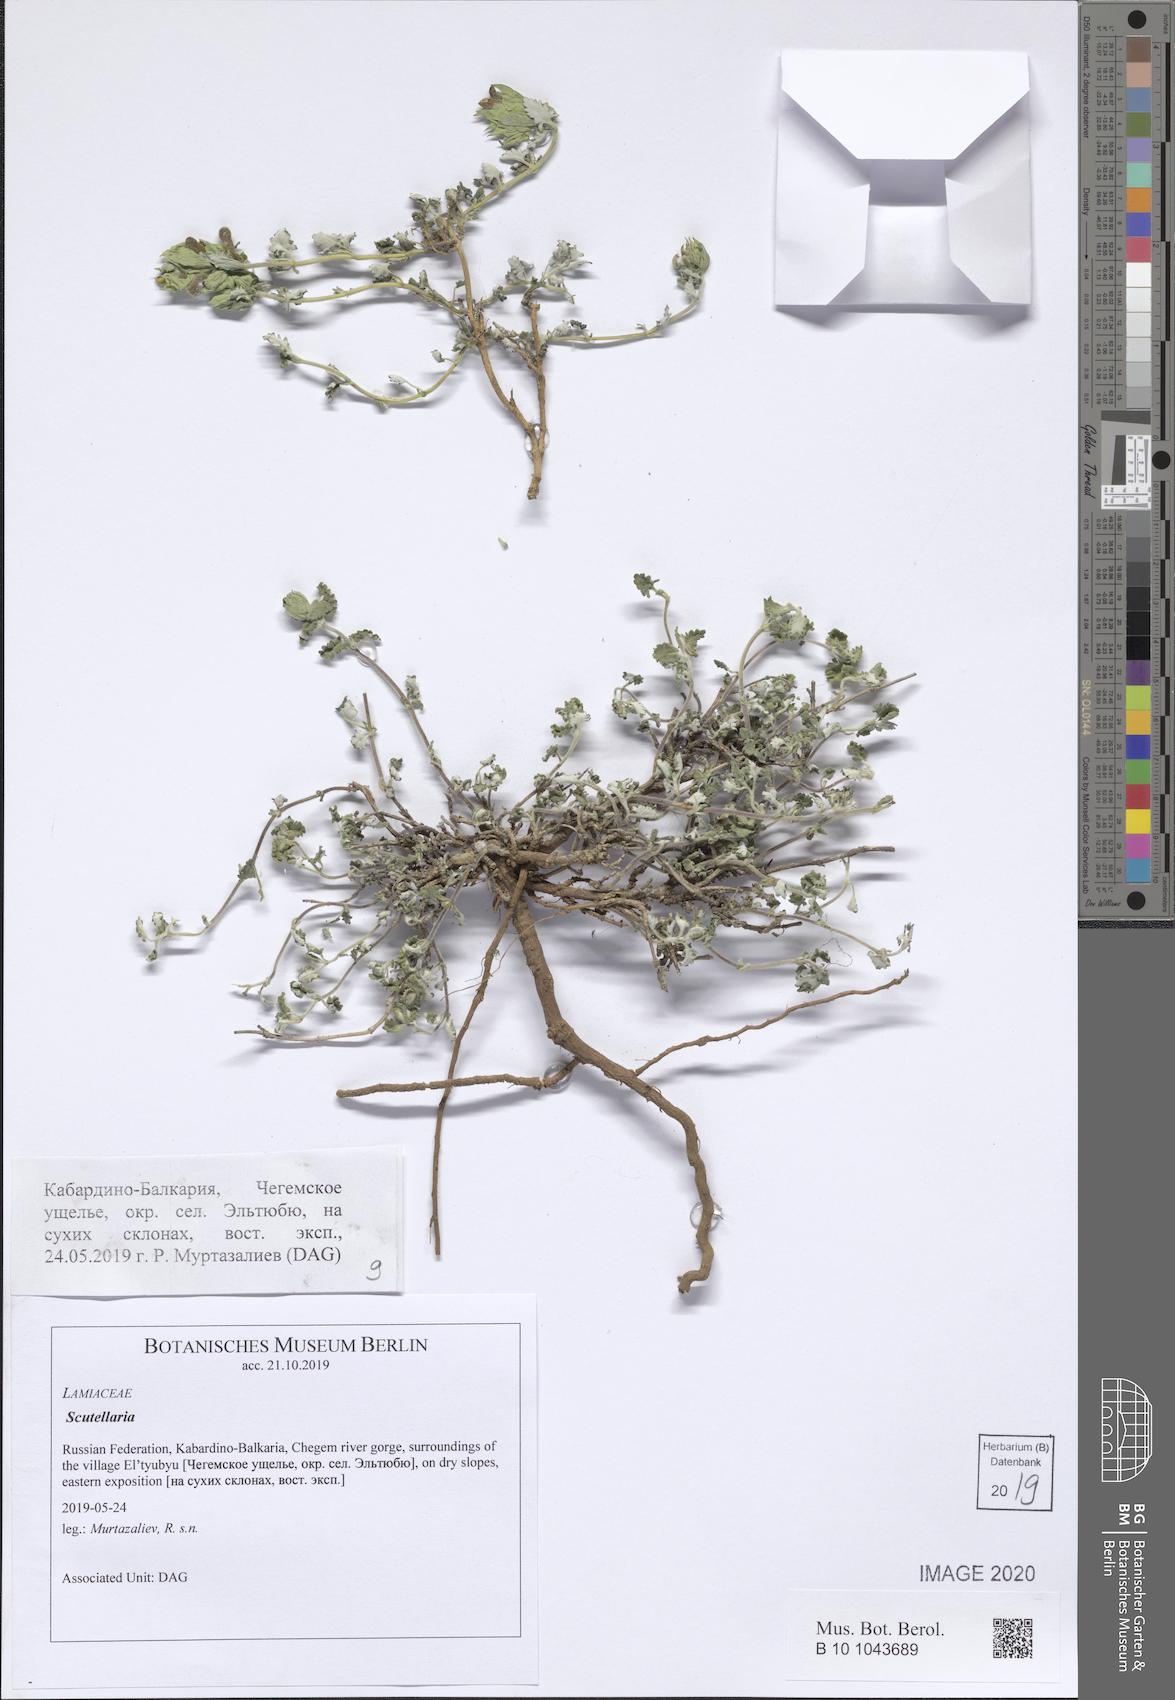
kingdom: Plantae
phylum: Tracheophyta
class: Magnoliopsida
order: Lamiales
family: Lamiaceae
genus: Scutellaria
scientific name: Scutellaria
